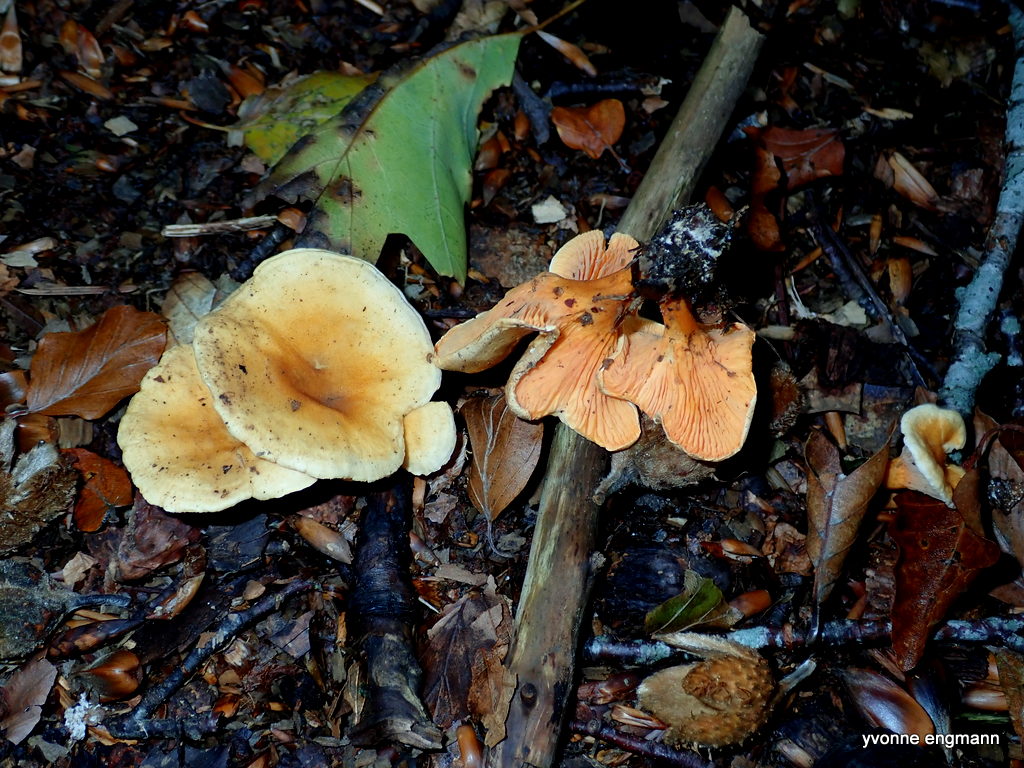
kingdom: Fungi
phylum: Basidiomycota
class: Agaricomycetes
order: Boletales
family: Hygrophoropsidaceae
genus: Hygrophoropsis
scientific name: Hygrophoropsis aurantiaca
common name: almindelig orangekantarel
